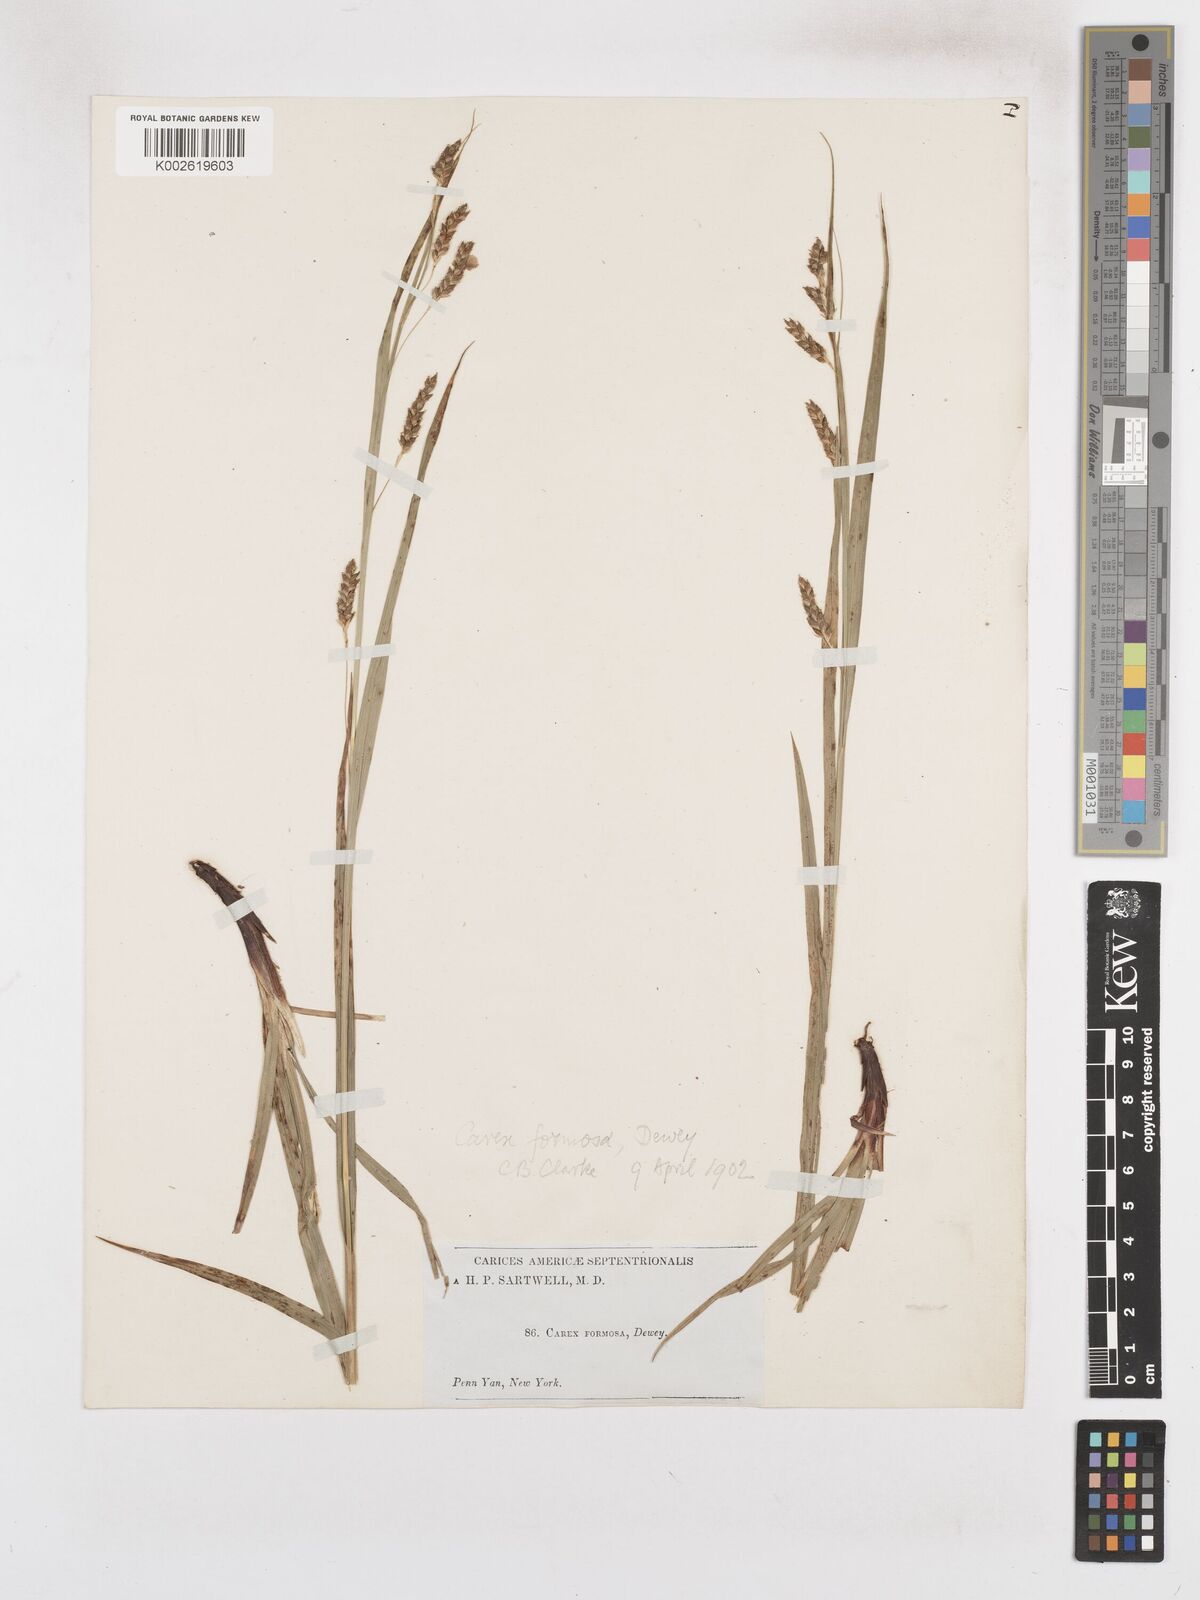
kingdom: Plantae
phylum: Tracheophyta
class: Liliopsida
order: Poales
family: Cyperaceae
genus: Carex
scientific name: Carex formosa
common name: Awnless graceful sedge
